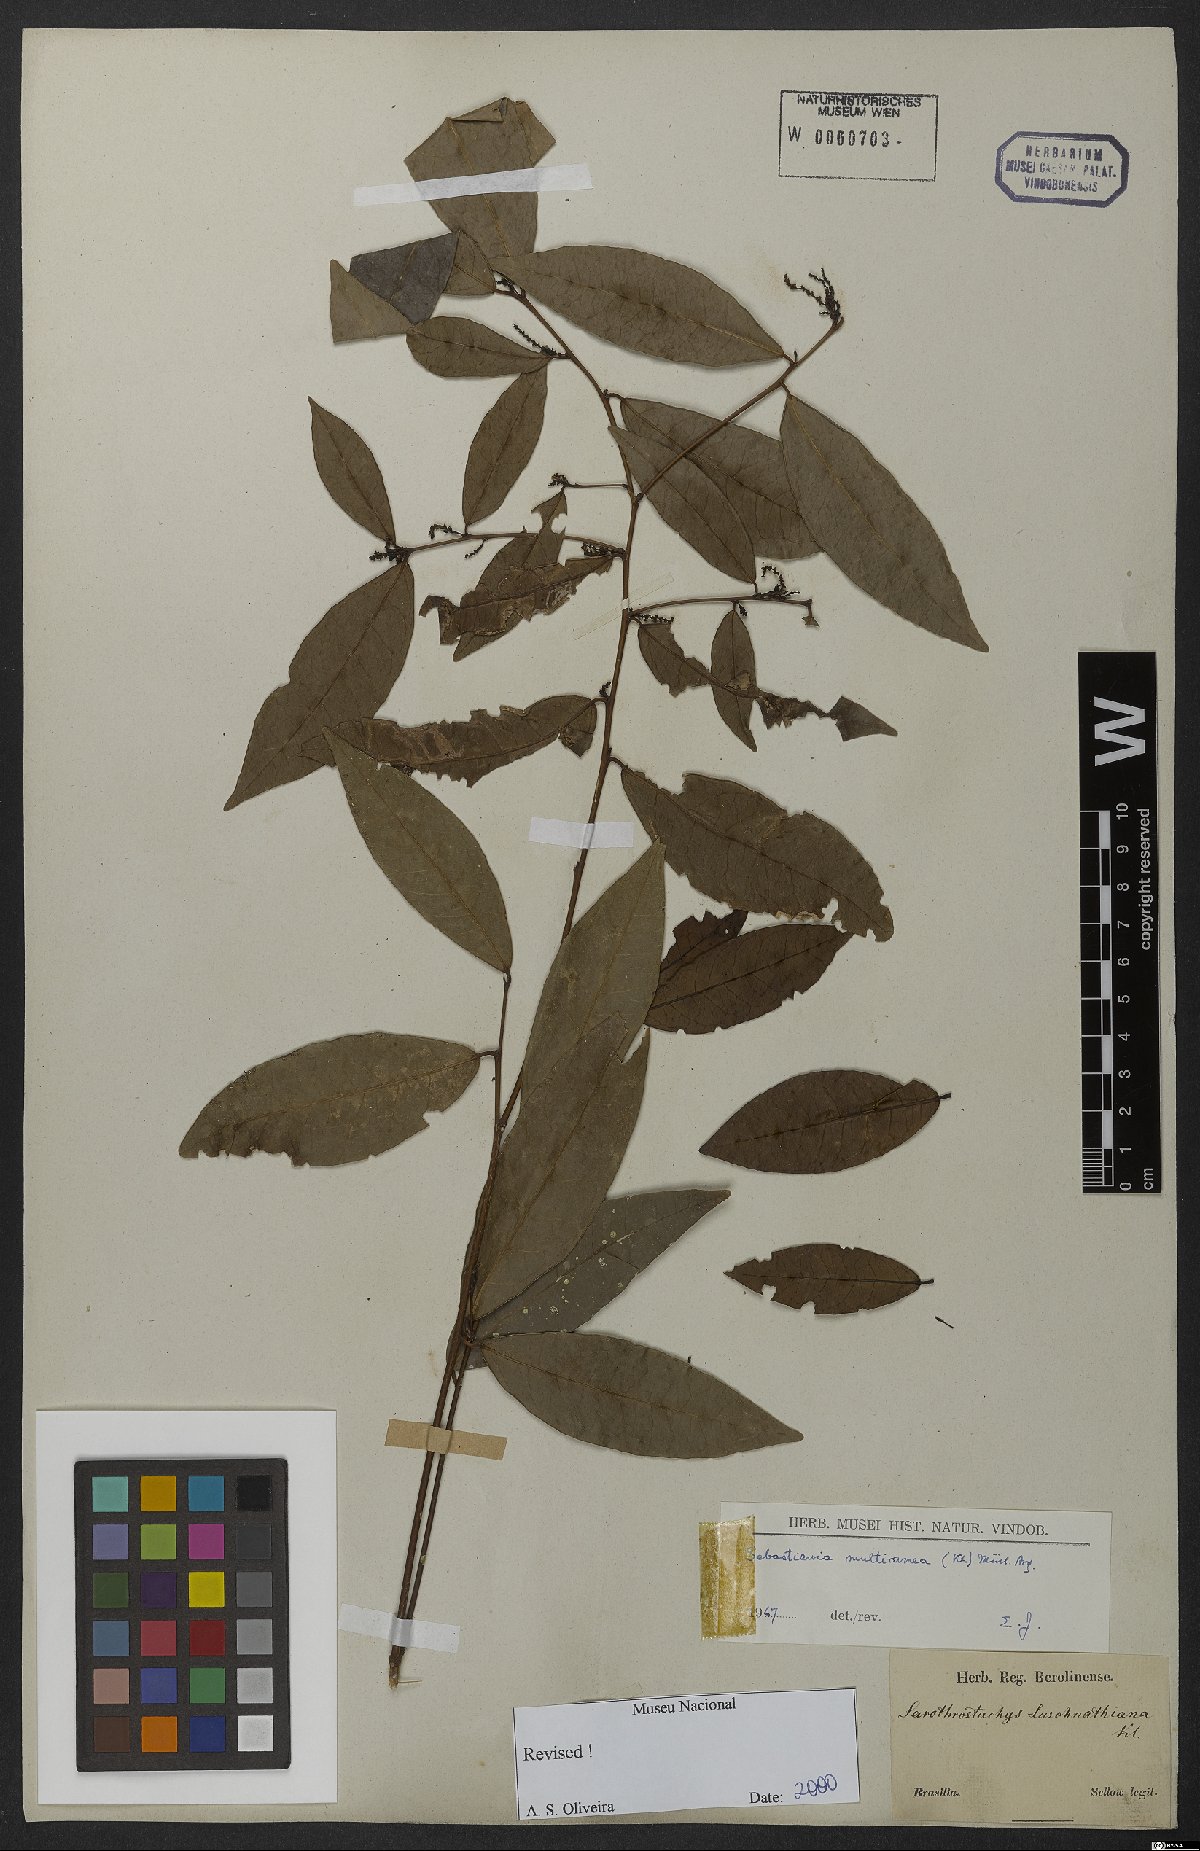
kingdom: Plantae
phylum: Tracheophyta
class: Magnoliopsida
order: Malpighiales
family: Euphorbiaceae
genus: Gymnanthes
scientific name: Gymnanthes glabrata
